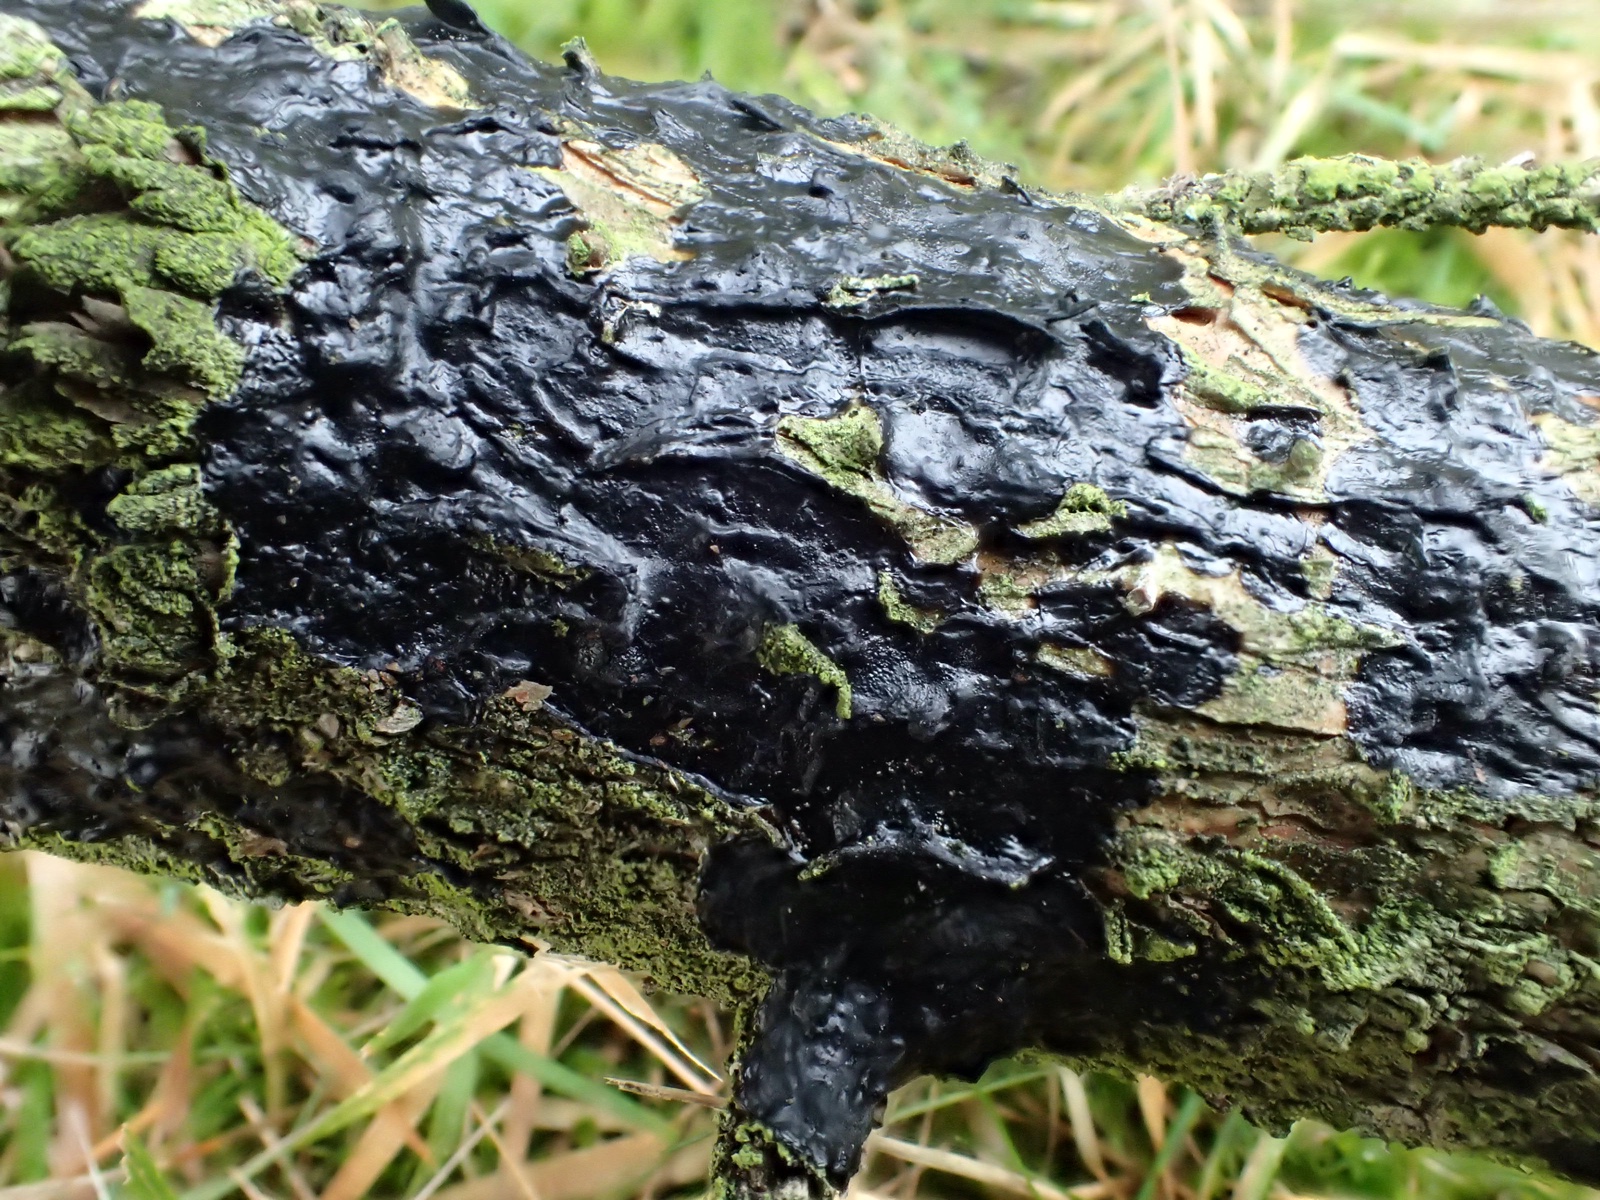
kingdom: Fungi
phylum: Basidiomycota
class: Agaricomycetes
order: Auriculariales
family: Auriculariaceae
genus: Exidia
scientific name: Exidia pithya
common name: gran-bævretop
